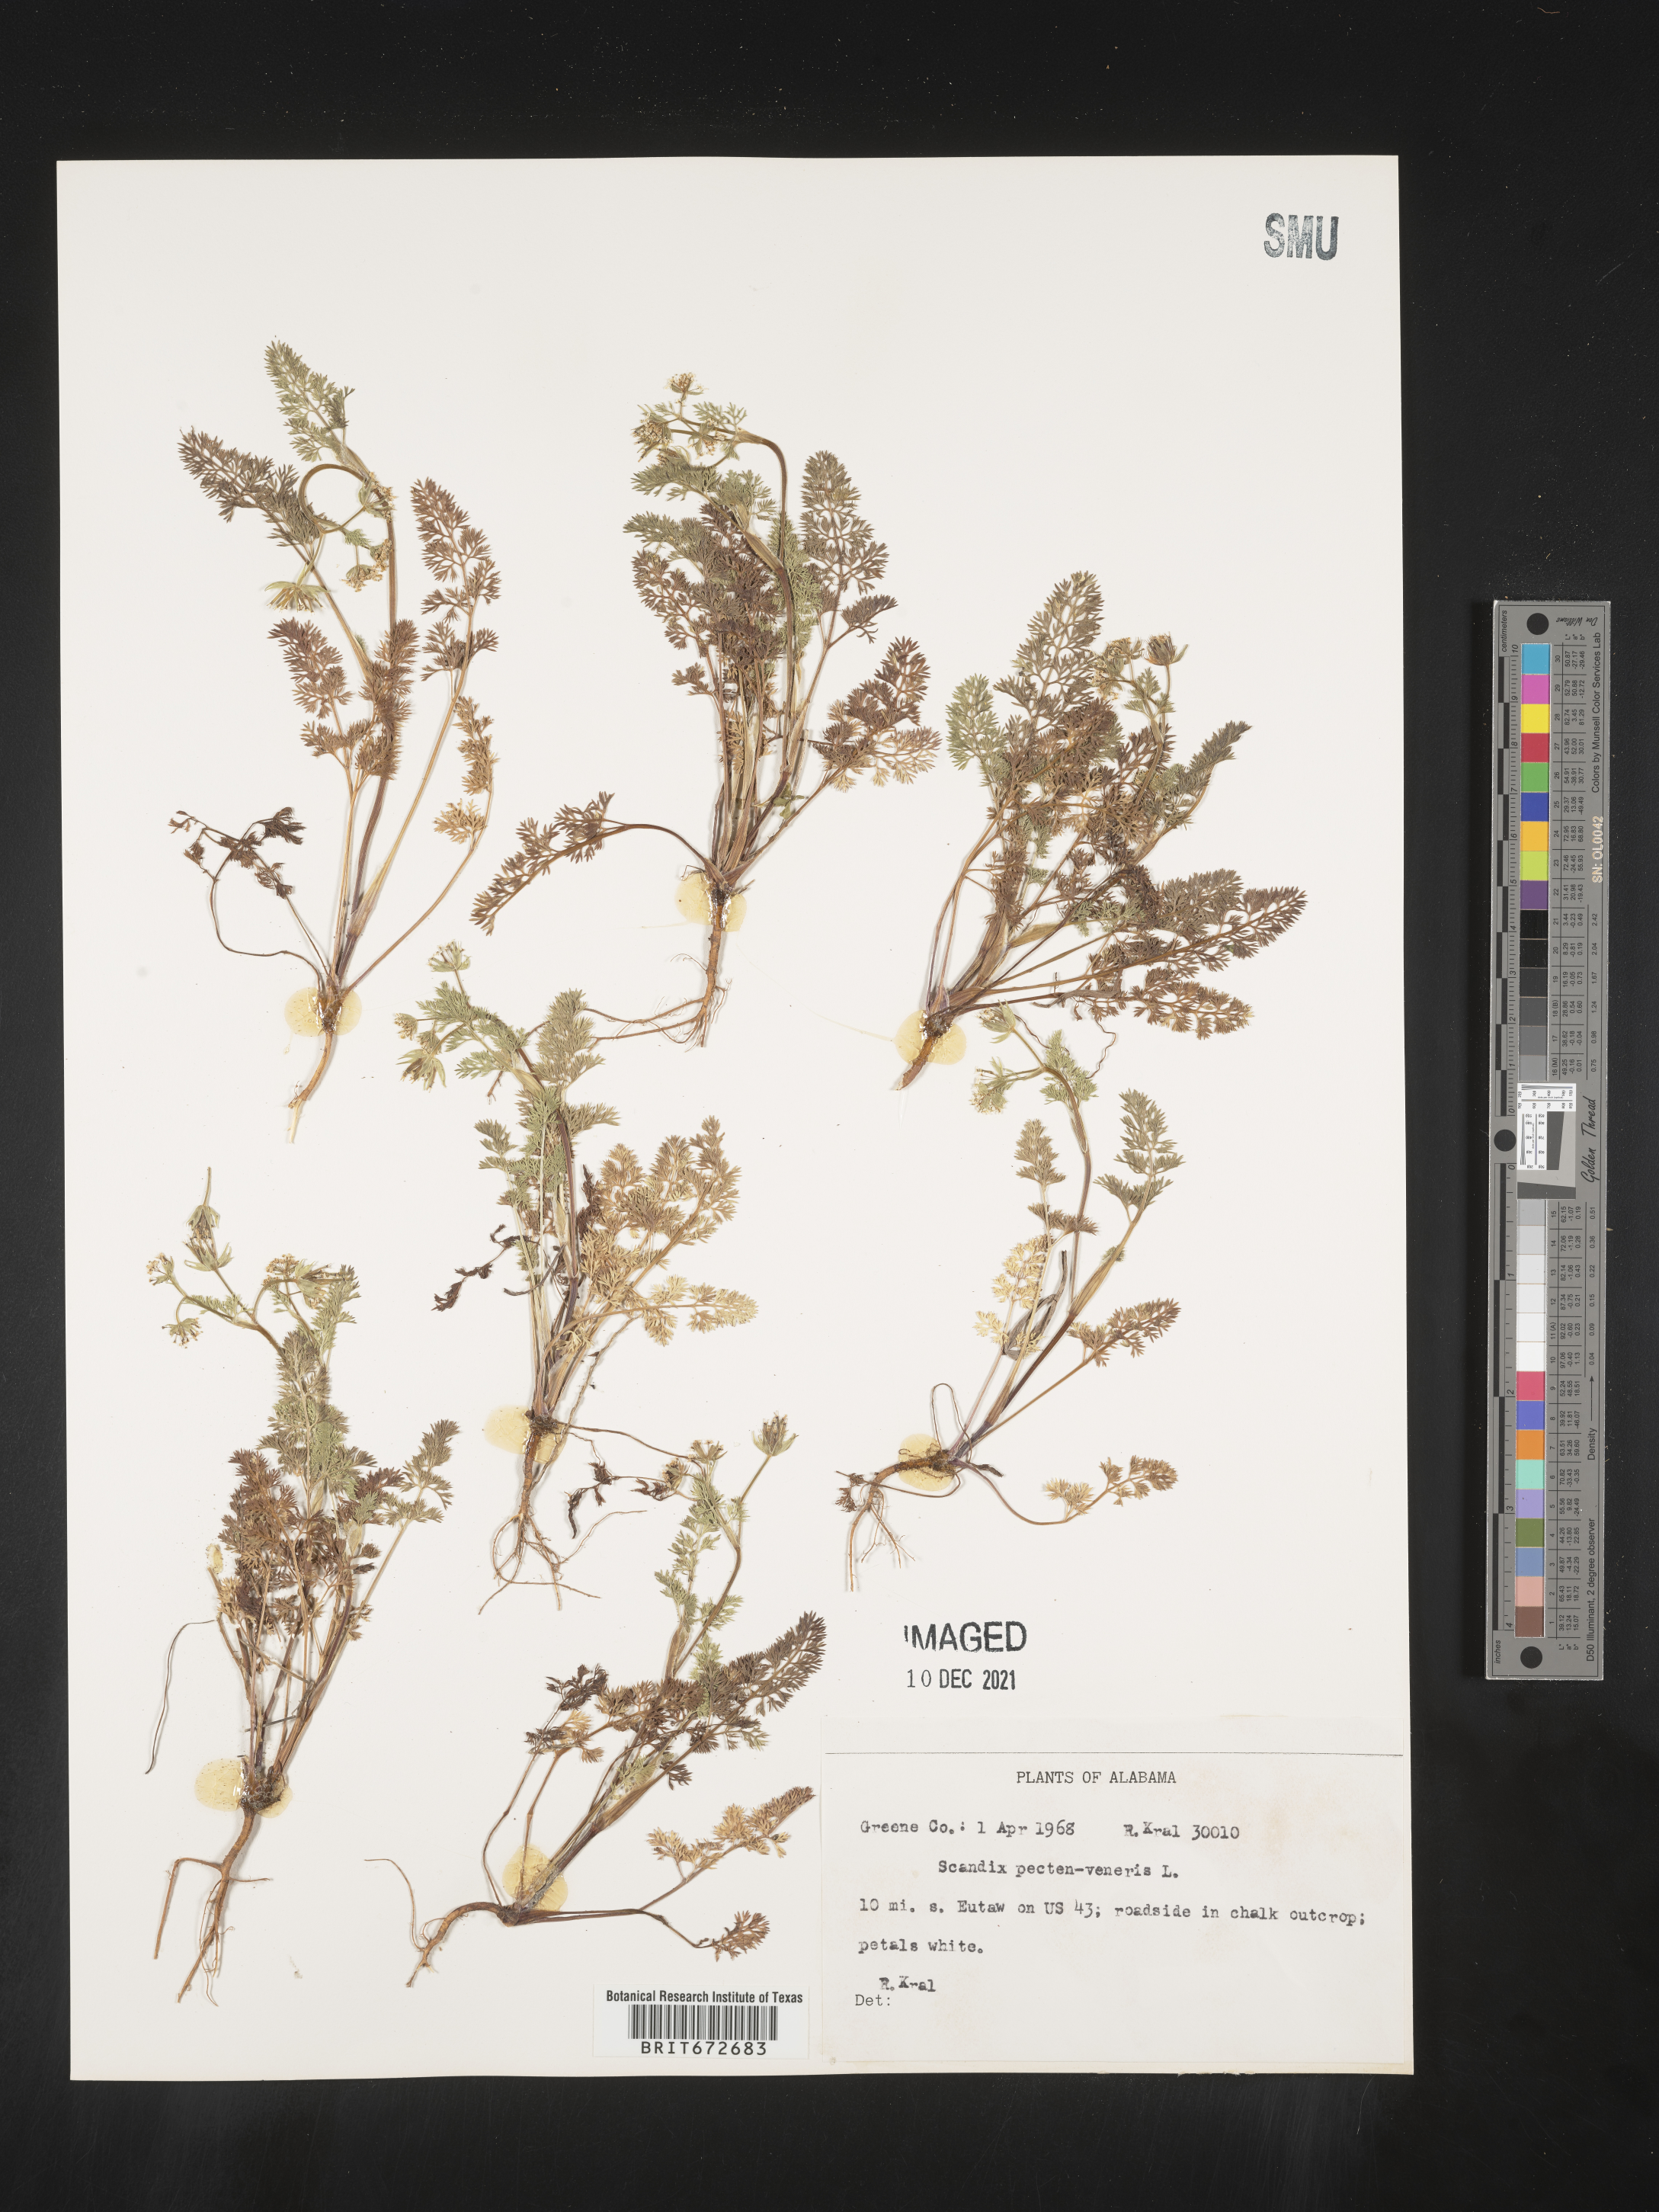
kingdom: Plantae
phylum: Tracheophyta
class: Magnoliopsida
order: Apiales
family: Apiaceae
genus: Scandix
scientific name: Scandix
